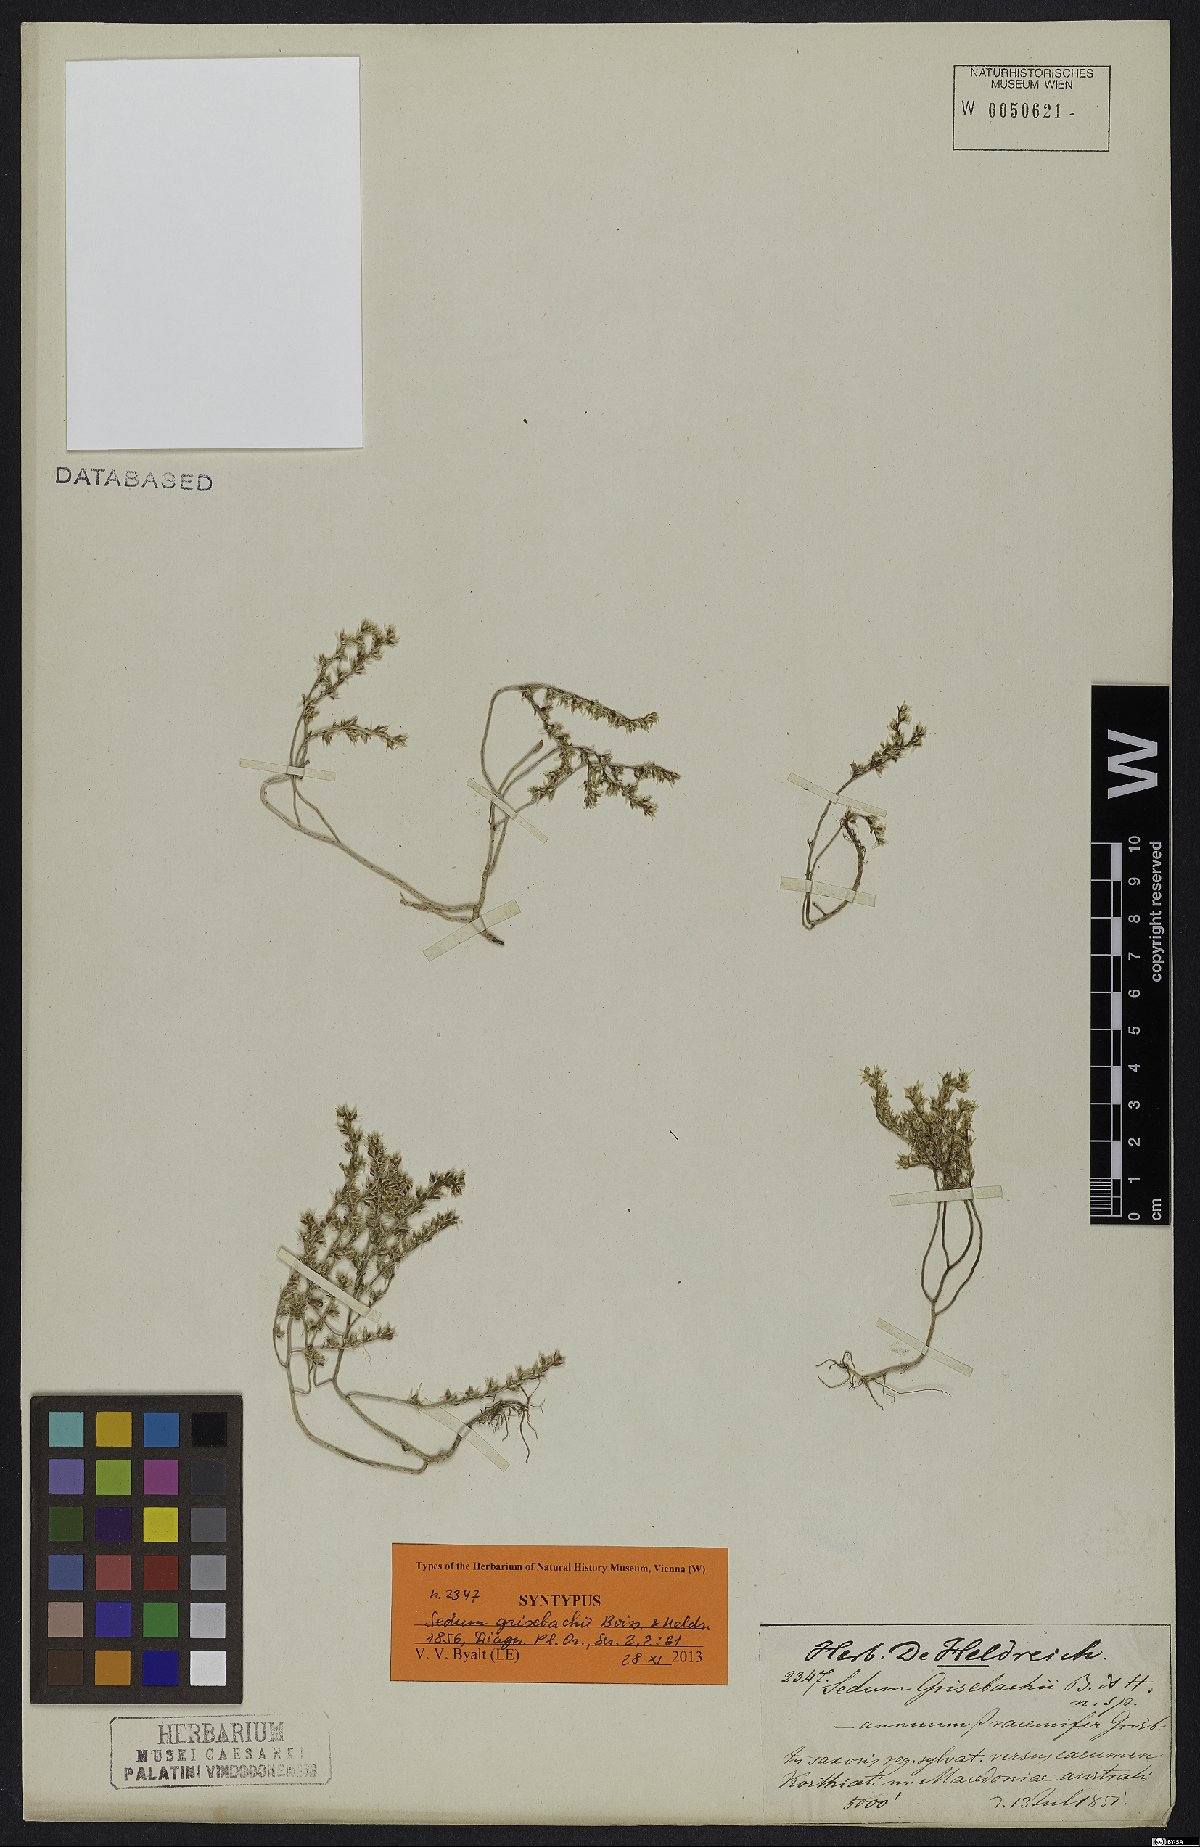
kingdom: Plantae
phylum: Tracheophyta
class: Magnoliopsida
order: Saxifragales
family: Crassulaceae
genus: Sedum
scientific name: Sedum grisebachii
